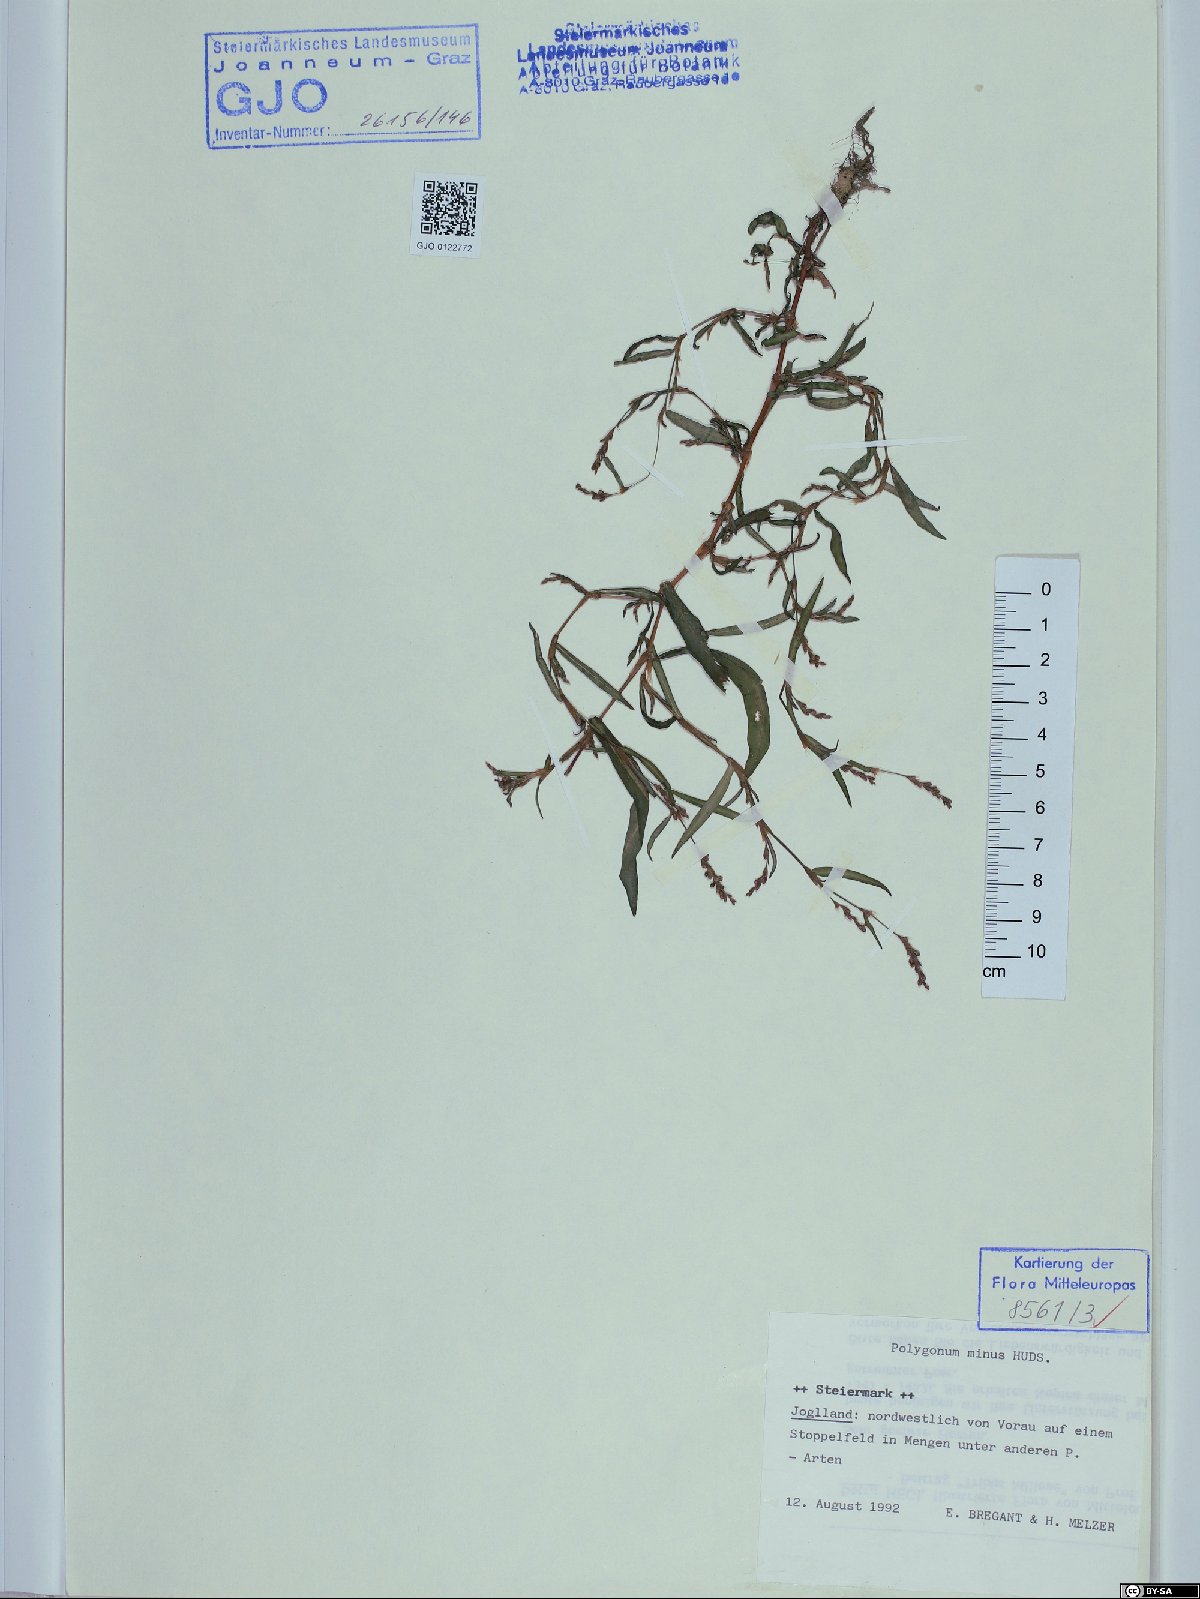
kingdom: Plantae
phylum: Tracheophyta
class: Magnoliopsida
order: Caryophyllales
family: Polygonaceae
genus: Persicaria
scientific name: Persicaria minor
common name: Small water-pepper
